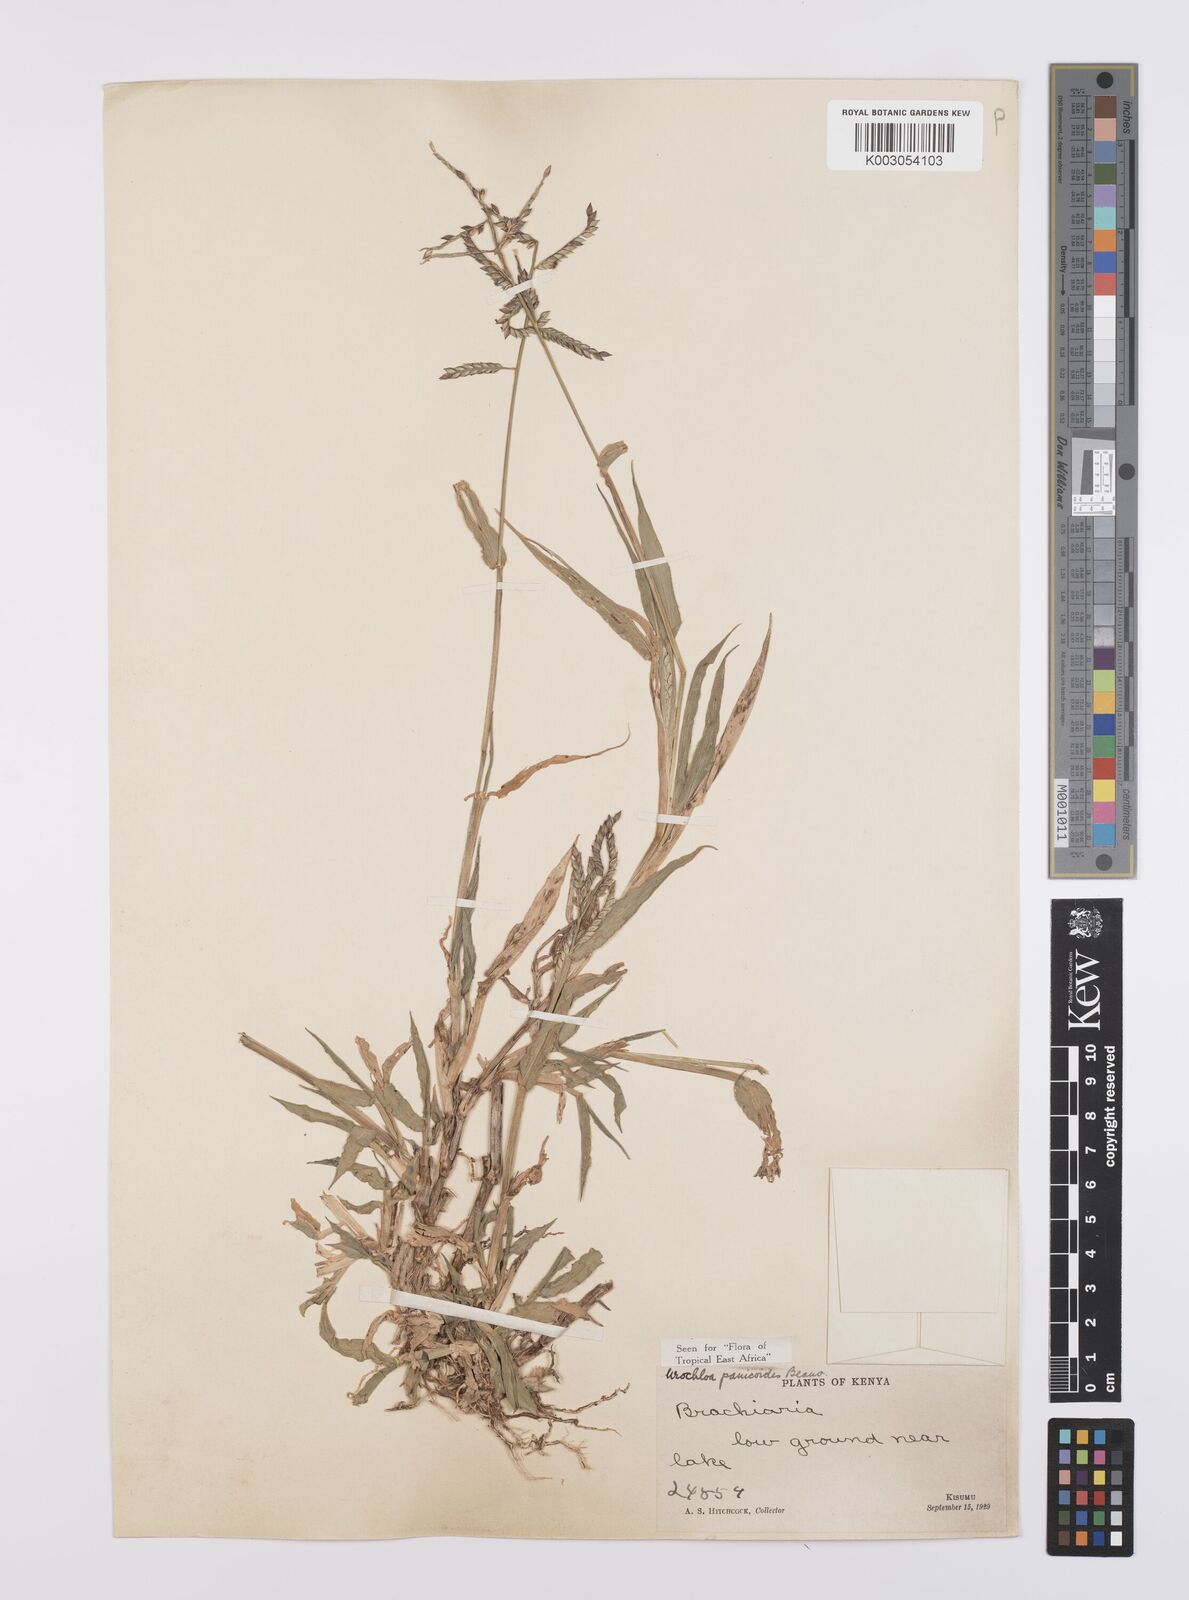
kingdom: Plantae
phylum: Tracheophyta
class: Liliopsida
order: Poales
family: Poaceae
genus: Urochloa
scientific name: Urochloa panicoides
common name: Sharp-flowered signal-grass
